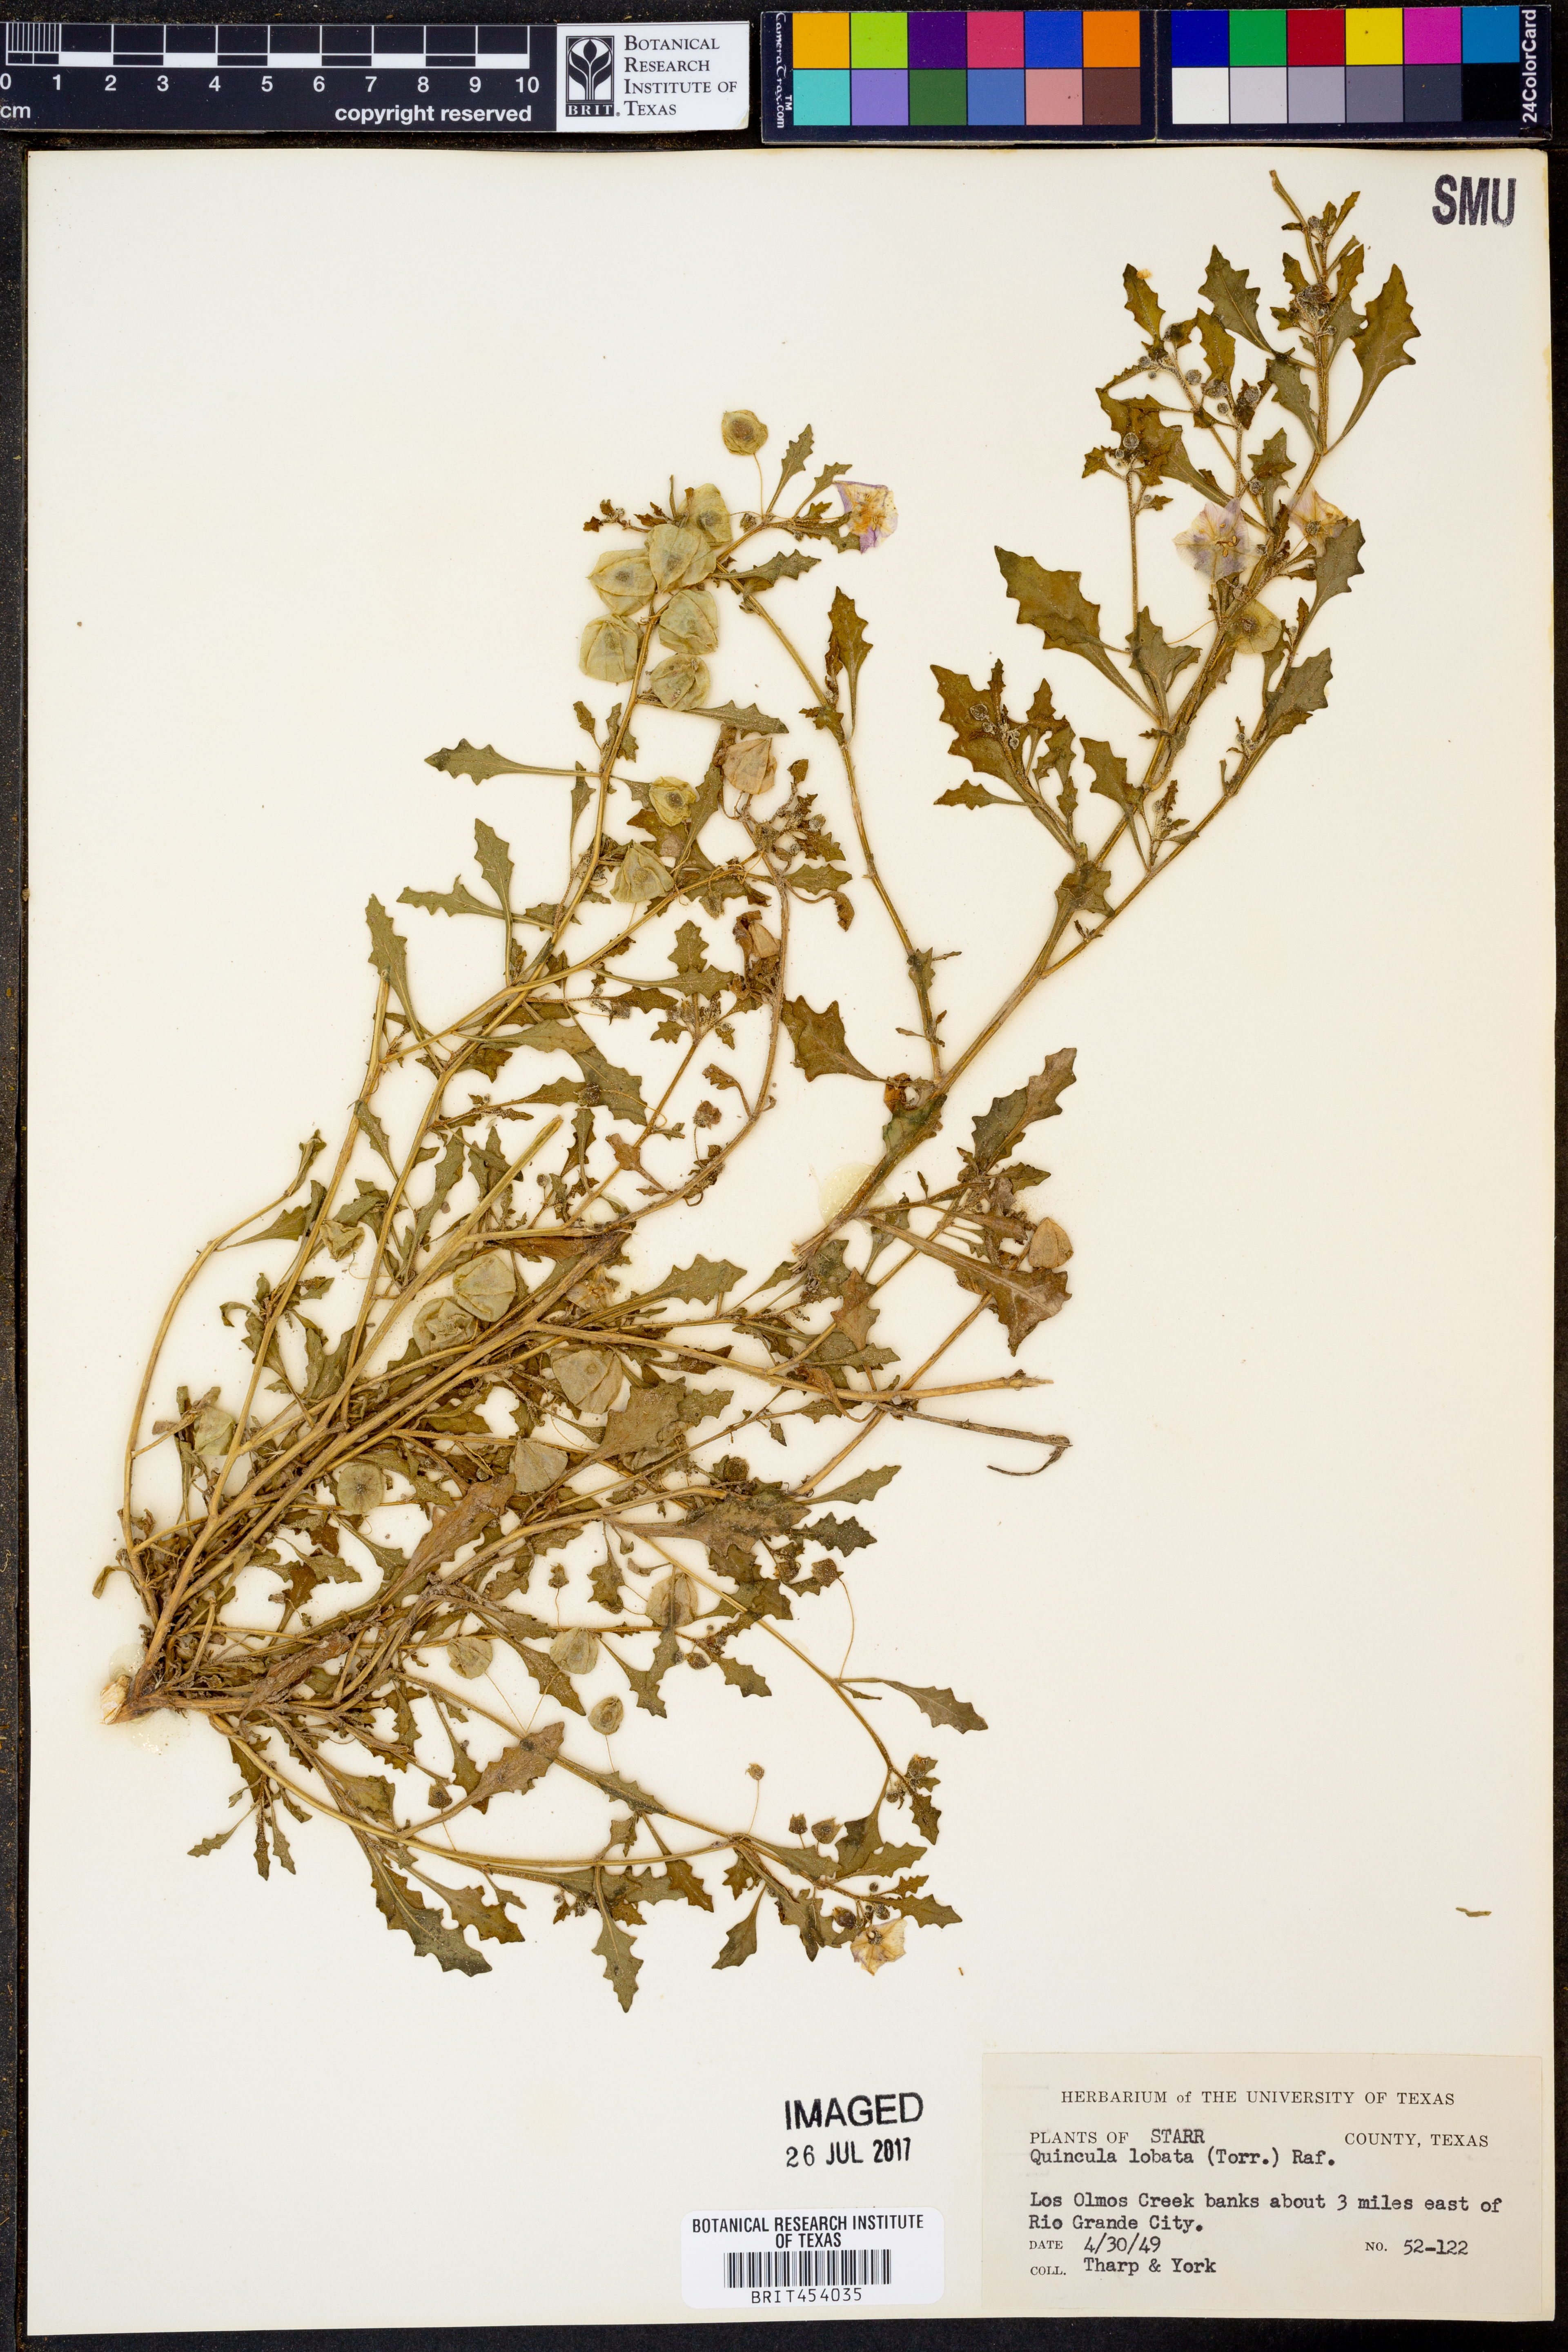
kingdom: Plantae
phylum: Tracheophyta
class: Magnoliopsida
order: Solanales
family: Solanaceae
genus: Quincula
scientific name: Quincula lobata
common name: Purple-ground-cherry
